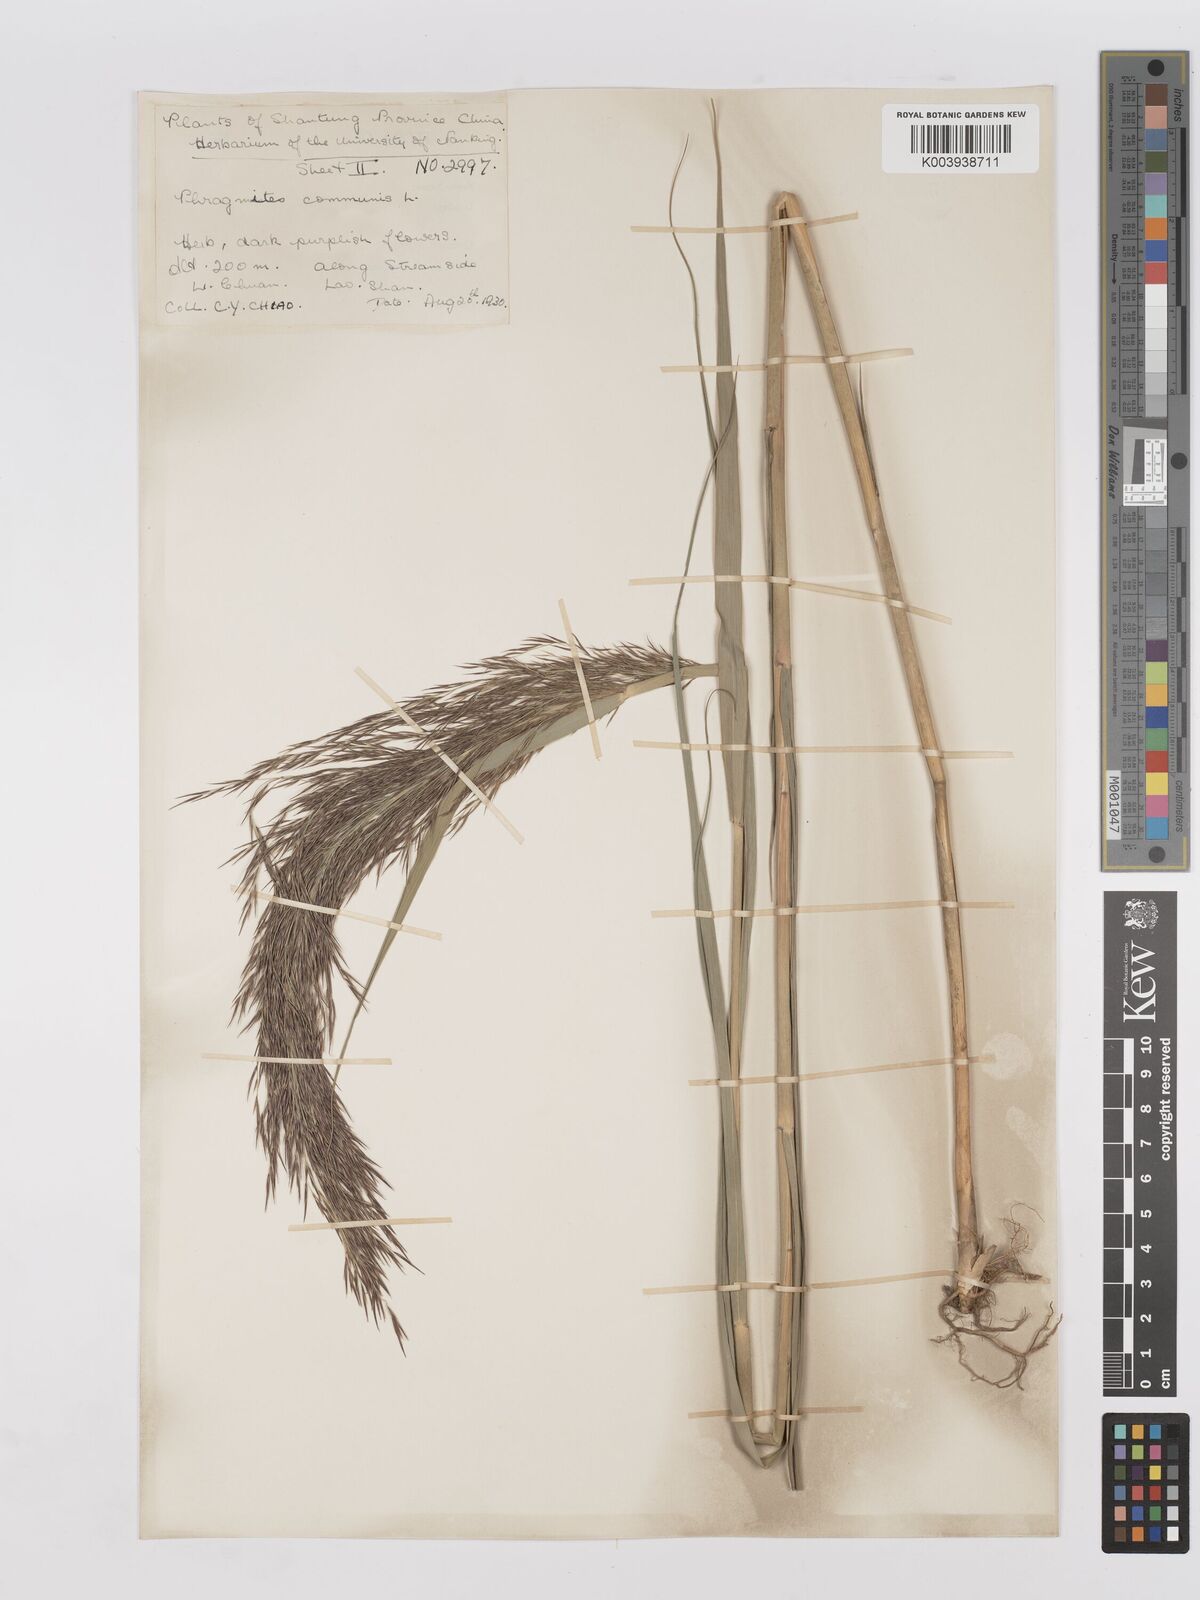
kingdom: Plantae
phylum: Tracheophyta
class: Liliopsida
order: Poales
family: Poaceae
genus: Phragmites
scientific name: Phragmites australis
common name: Common reed
